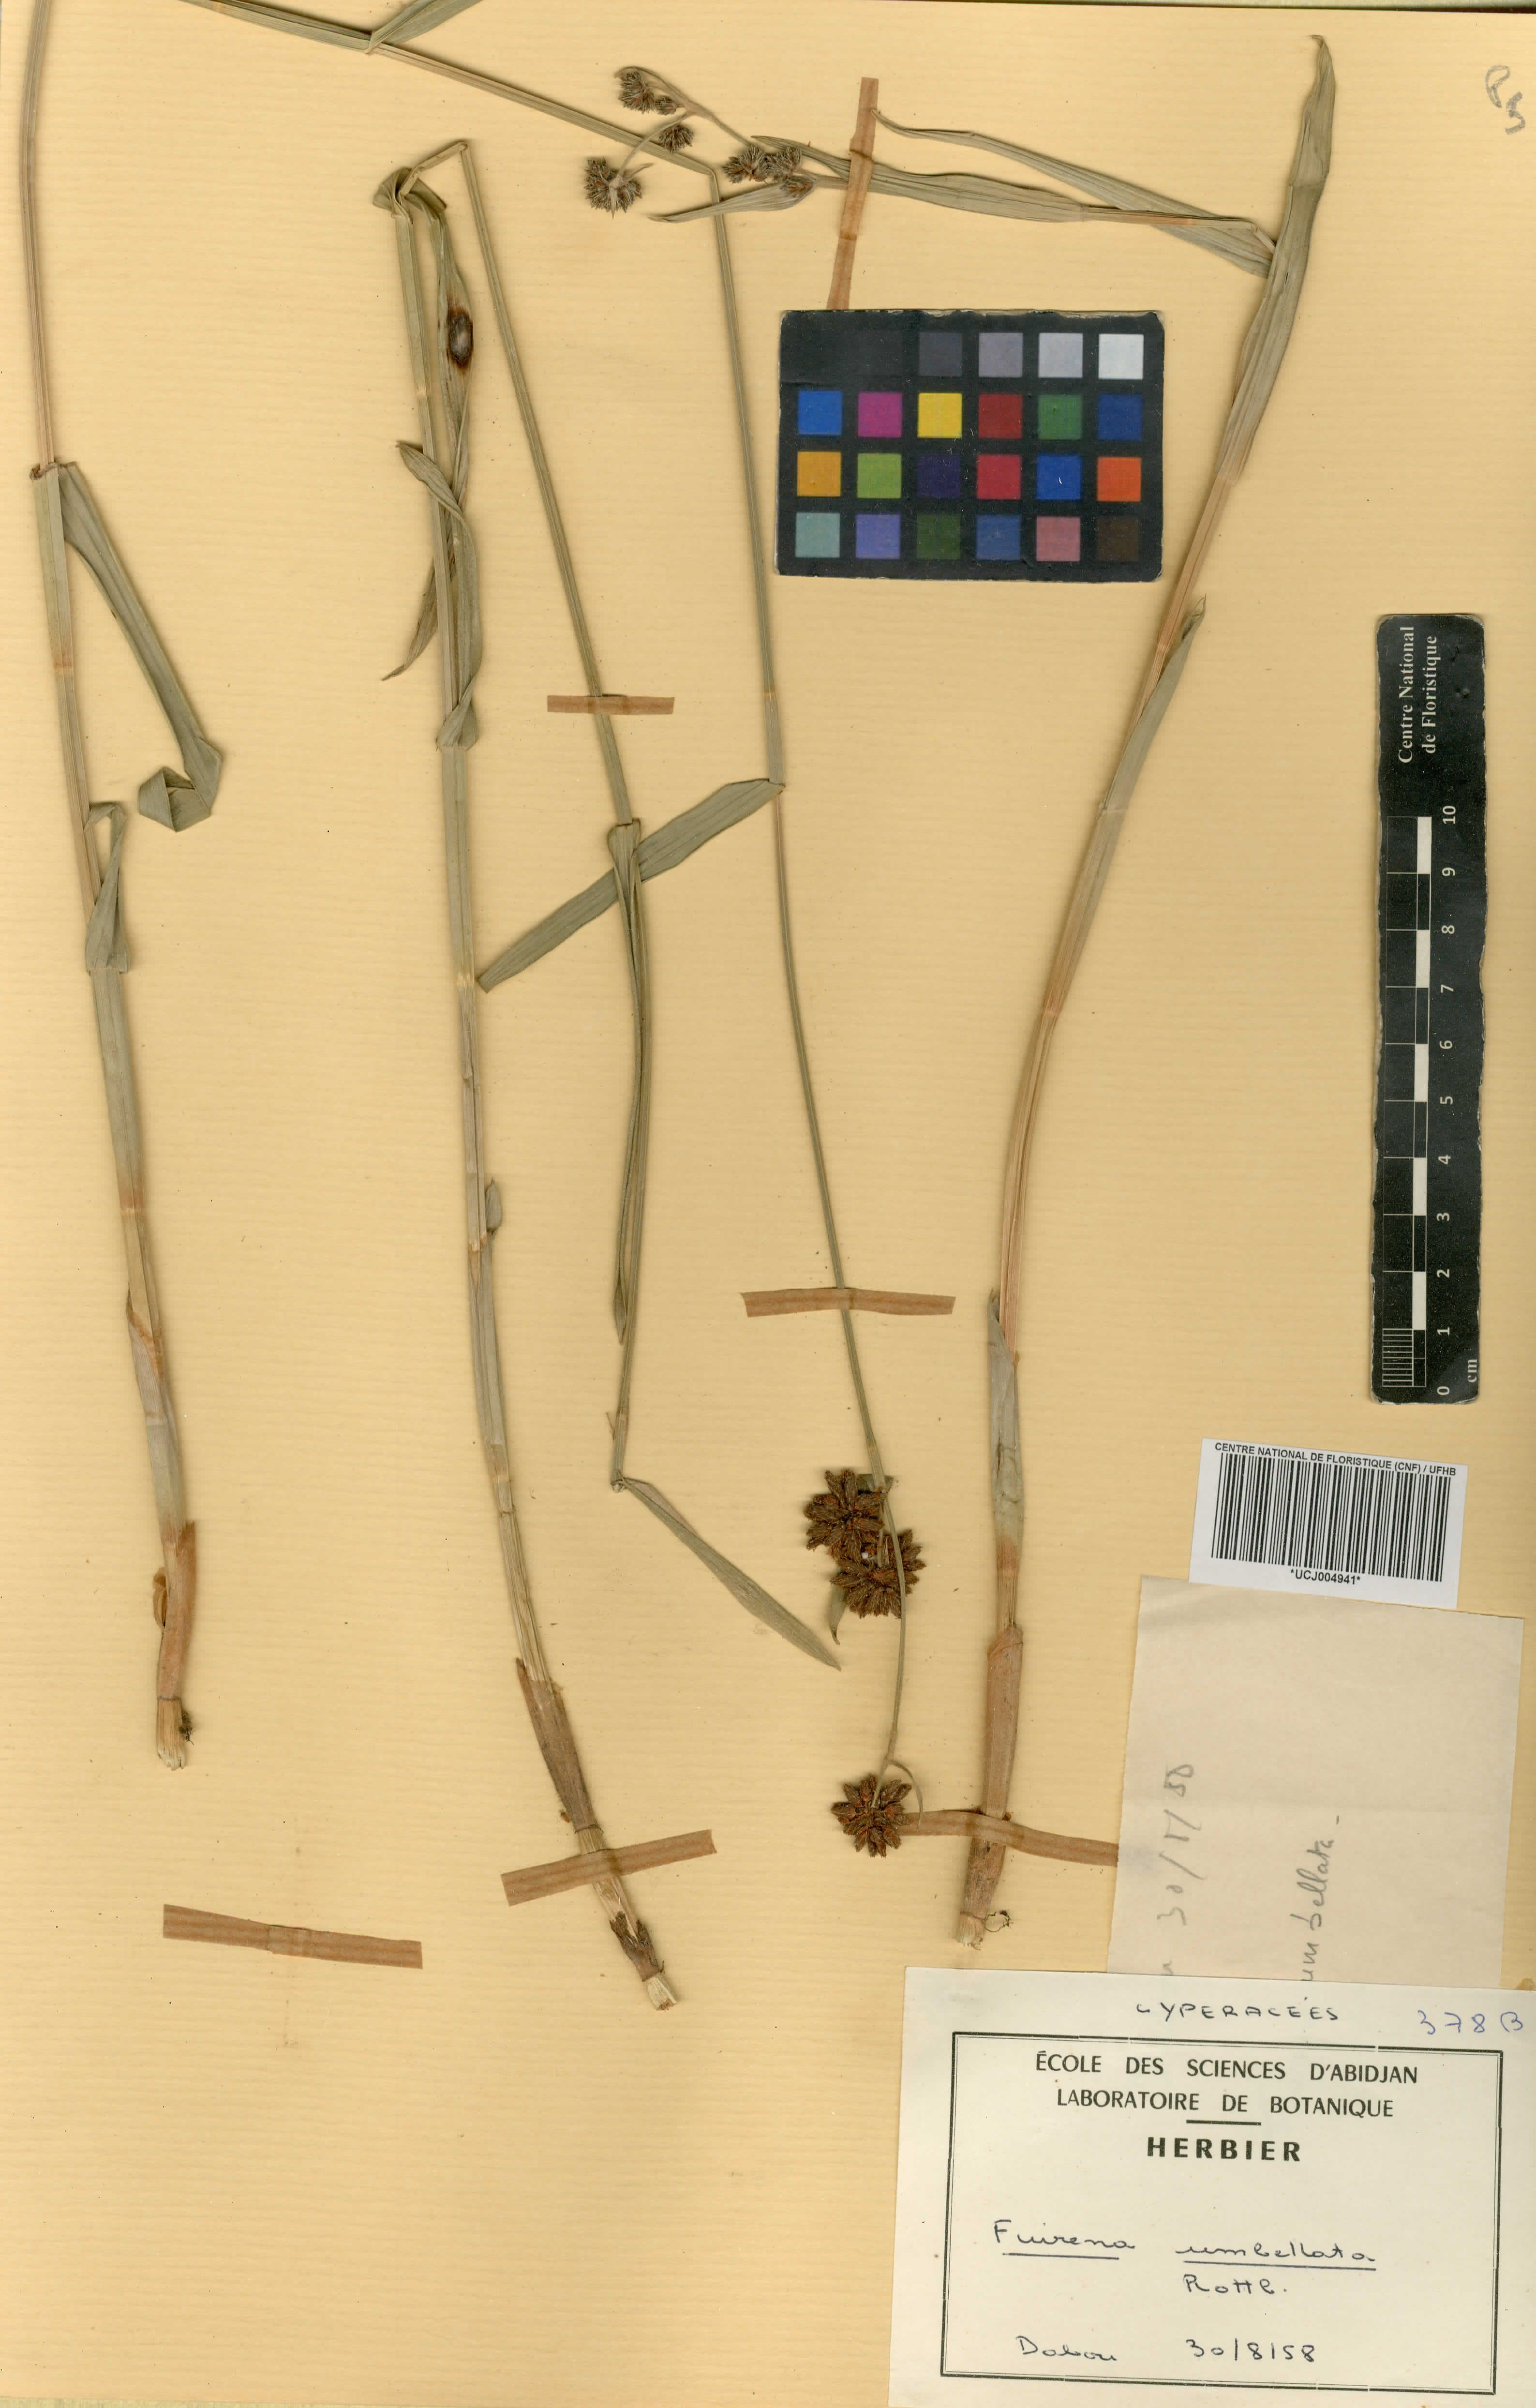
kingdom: Plantae
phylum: Tracheophyta
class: Liliopsida
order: Poales
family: Cyperaceae
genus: Fuirena
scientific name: Fuirena umbellata
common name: Yefen
